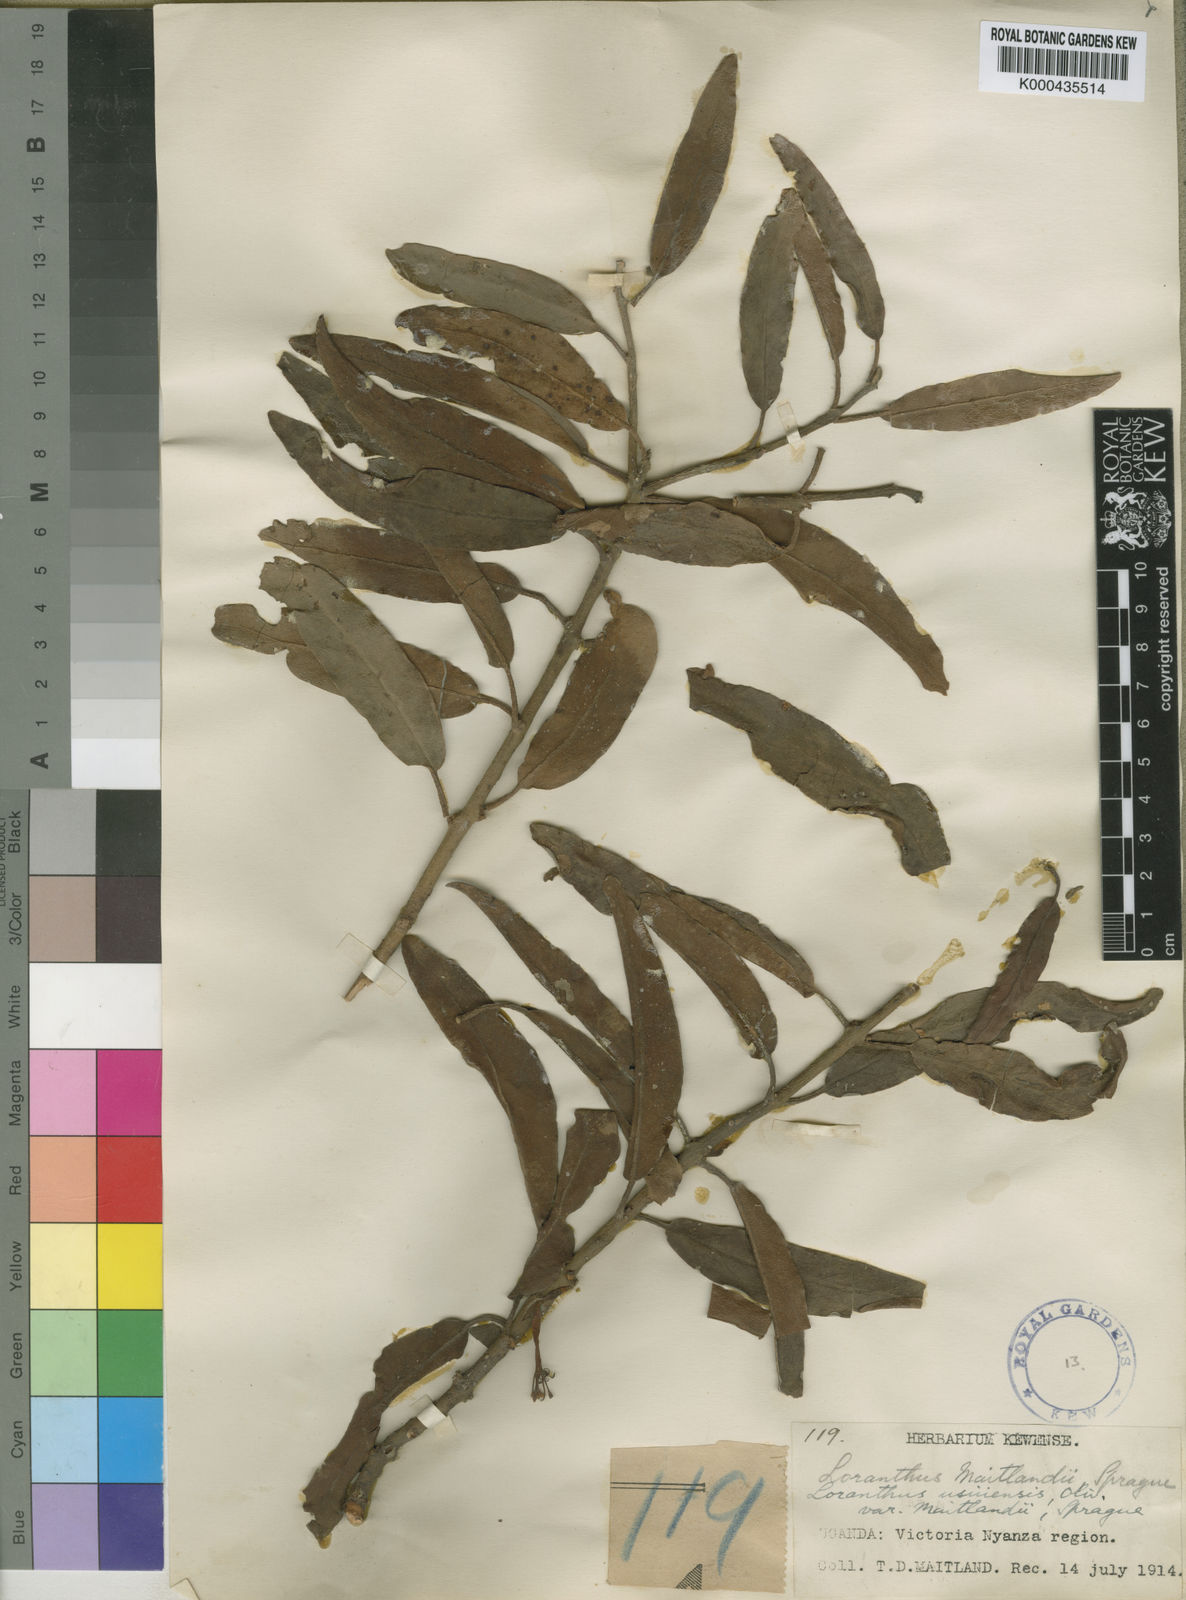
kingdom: Plantae
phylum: Tracheophyta
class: Magnoliopsida
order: Santalales
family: Loranthaceae
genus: Phragmanthera
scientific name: Phragmanthera usuiensis
